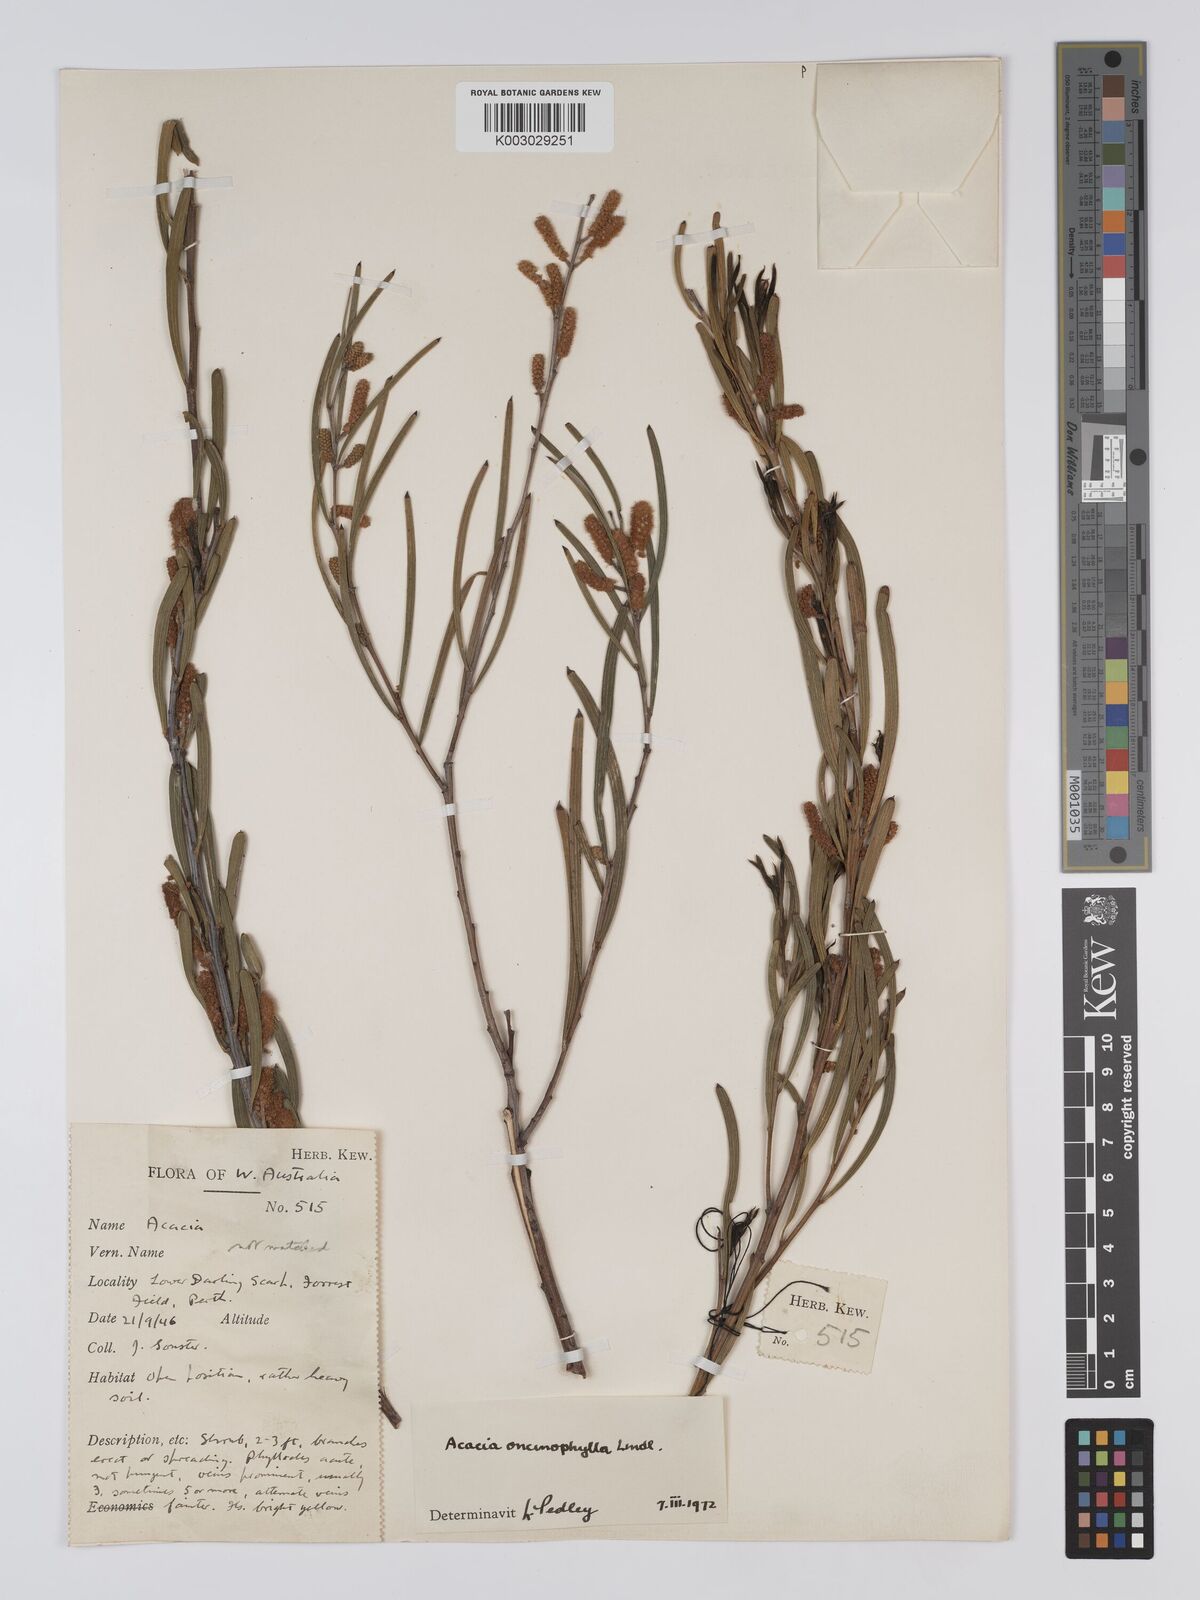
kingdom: Plantae
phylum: Tracheophyta
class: Magnoliopsida
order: Fabales
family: Fabaceae
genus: Acacia
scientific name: Acacia oncinophylla
